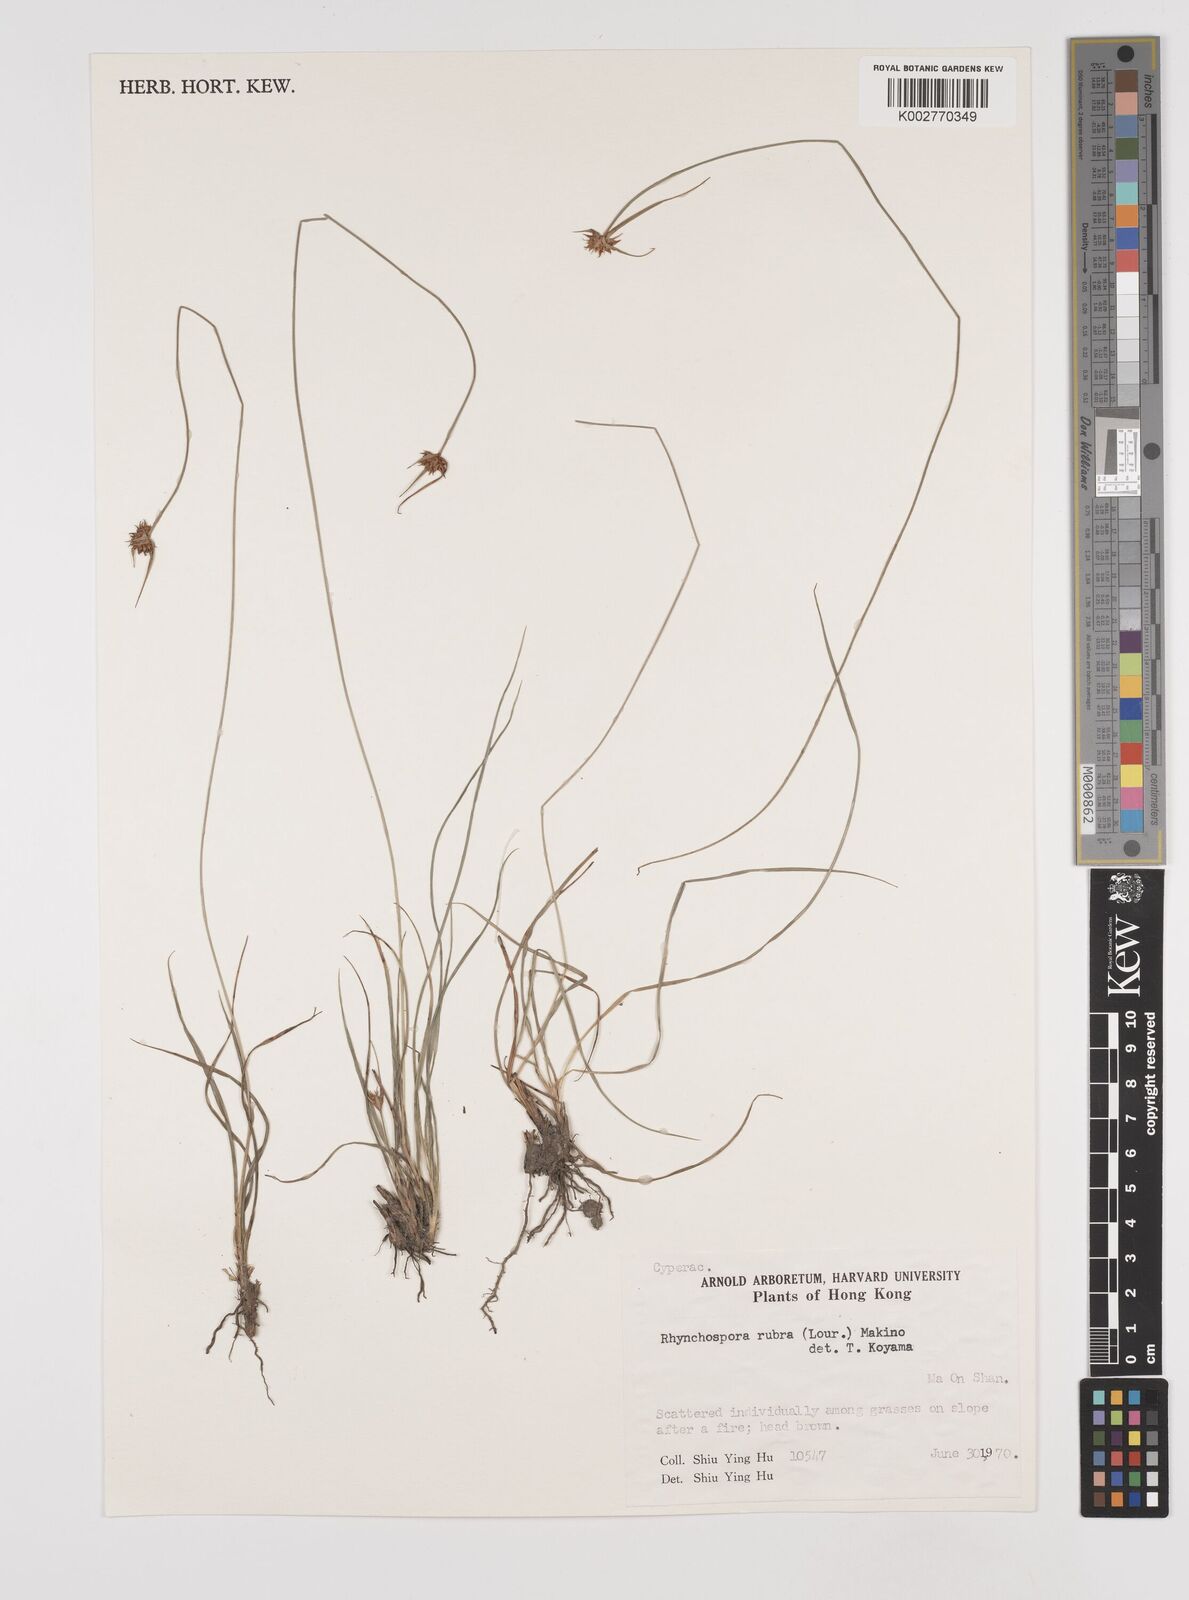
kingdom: Plantae
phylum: Tracheophyta
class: Liliopsida
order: Poales
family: Cyperaceae
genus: Rhynchospora
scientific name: Rhynchospora rubra
